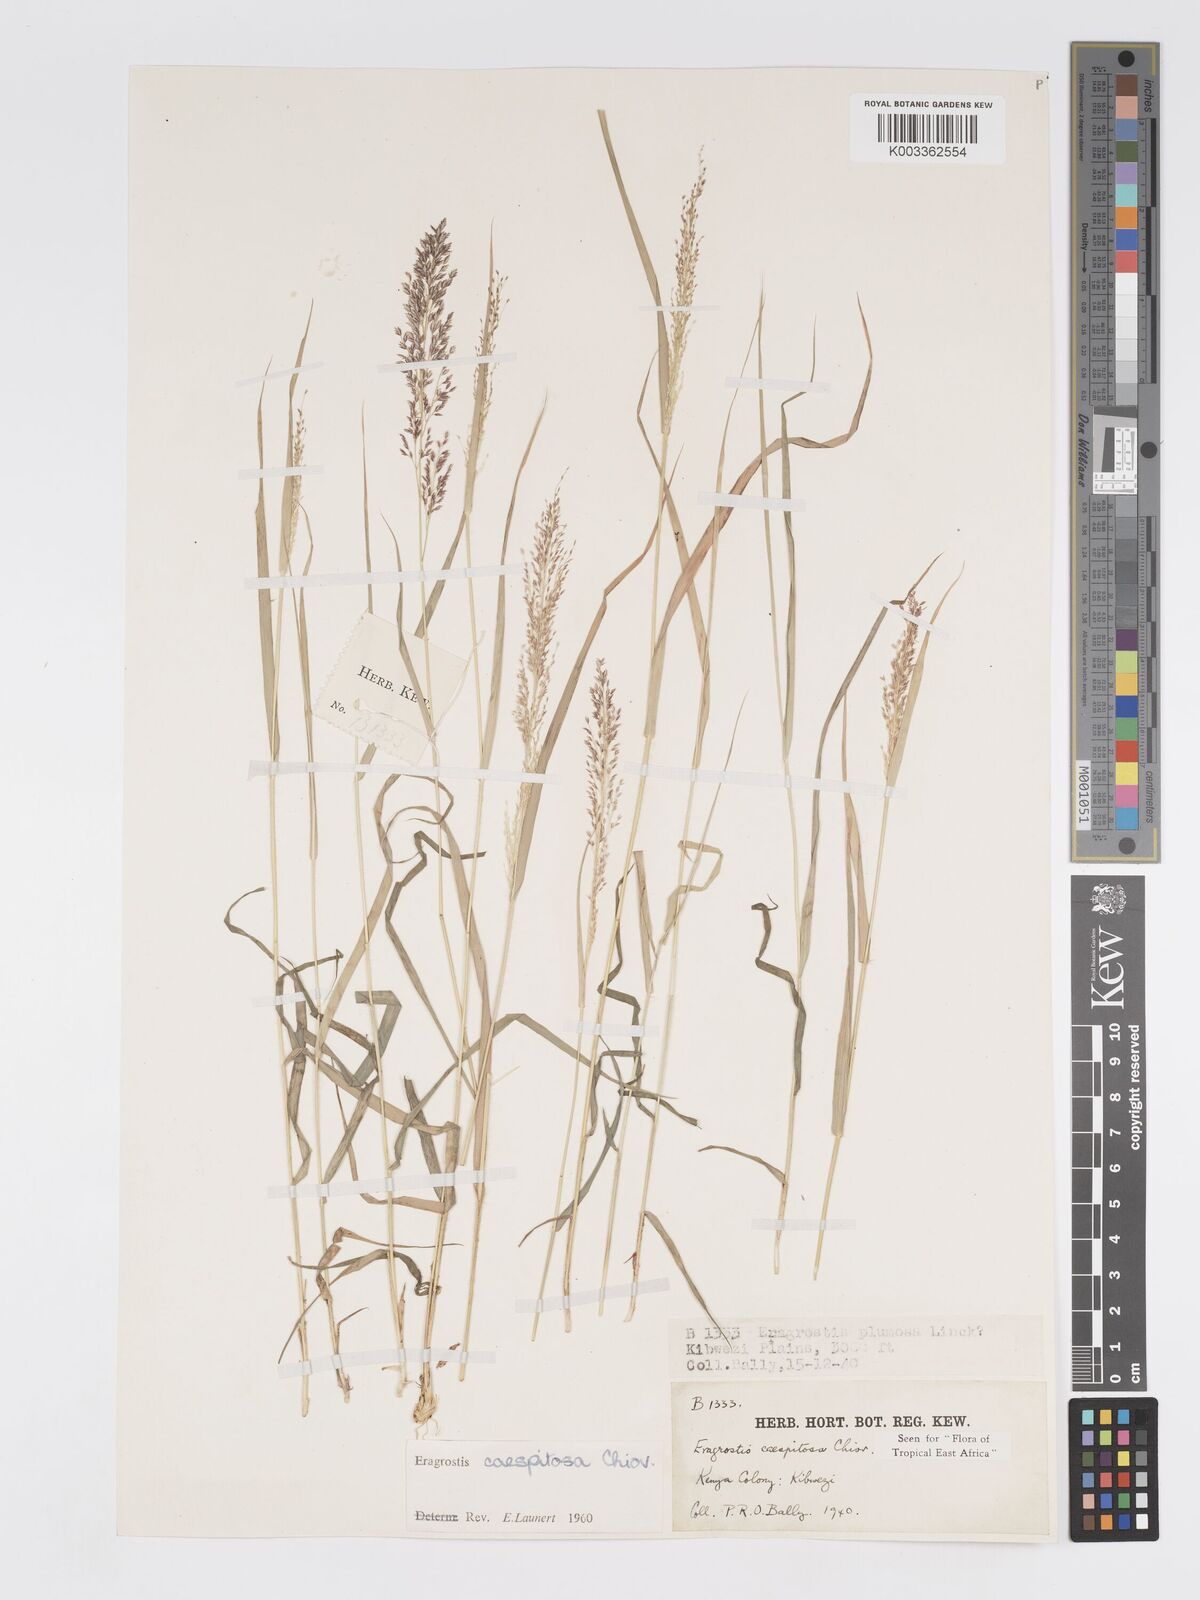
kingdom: Plantae
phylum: Tracheophyta
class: Liliopsida
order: Poales
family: Poaceae
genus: Eragrostis
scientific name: Eragrostis caespitosa
